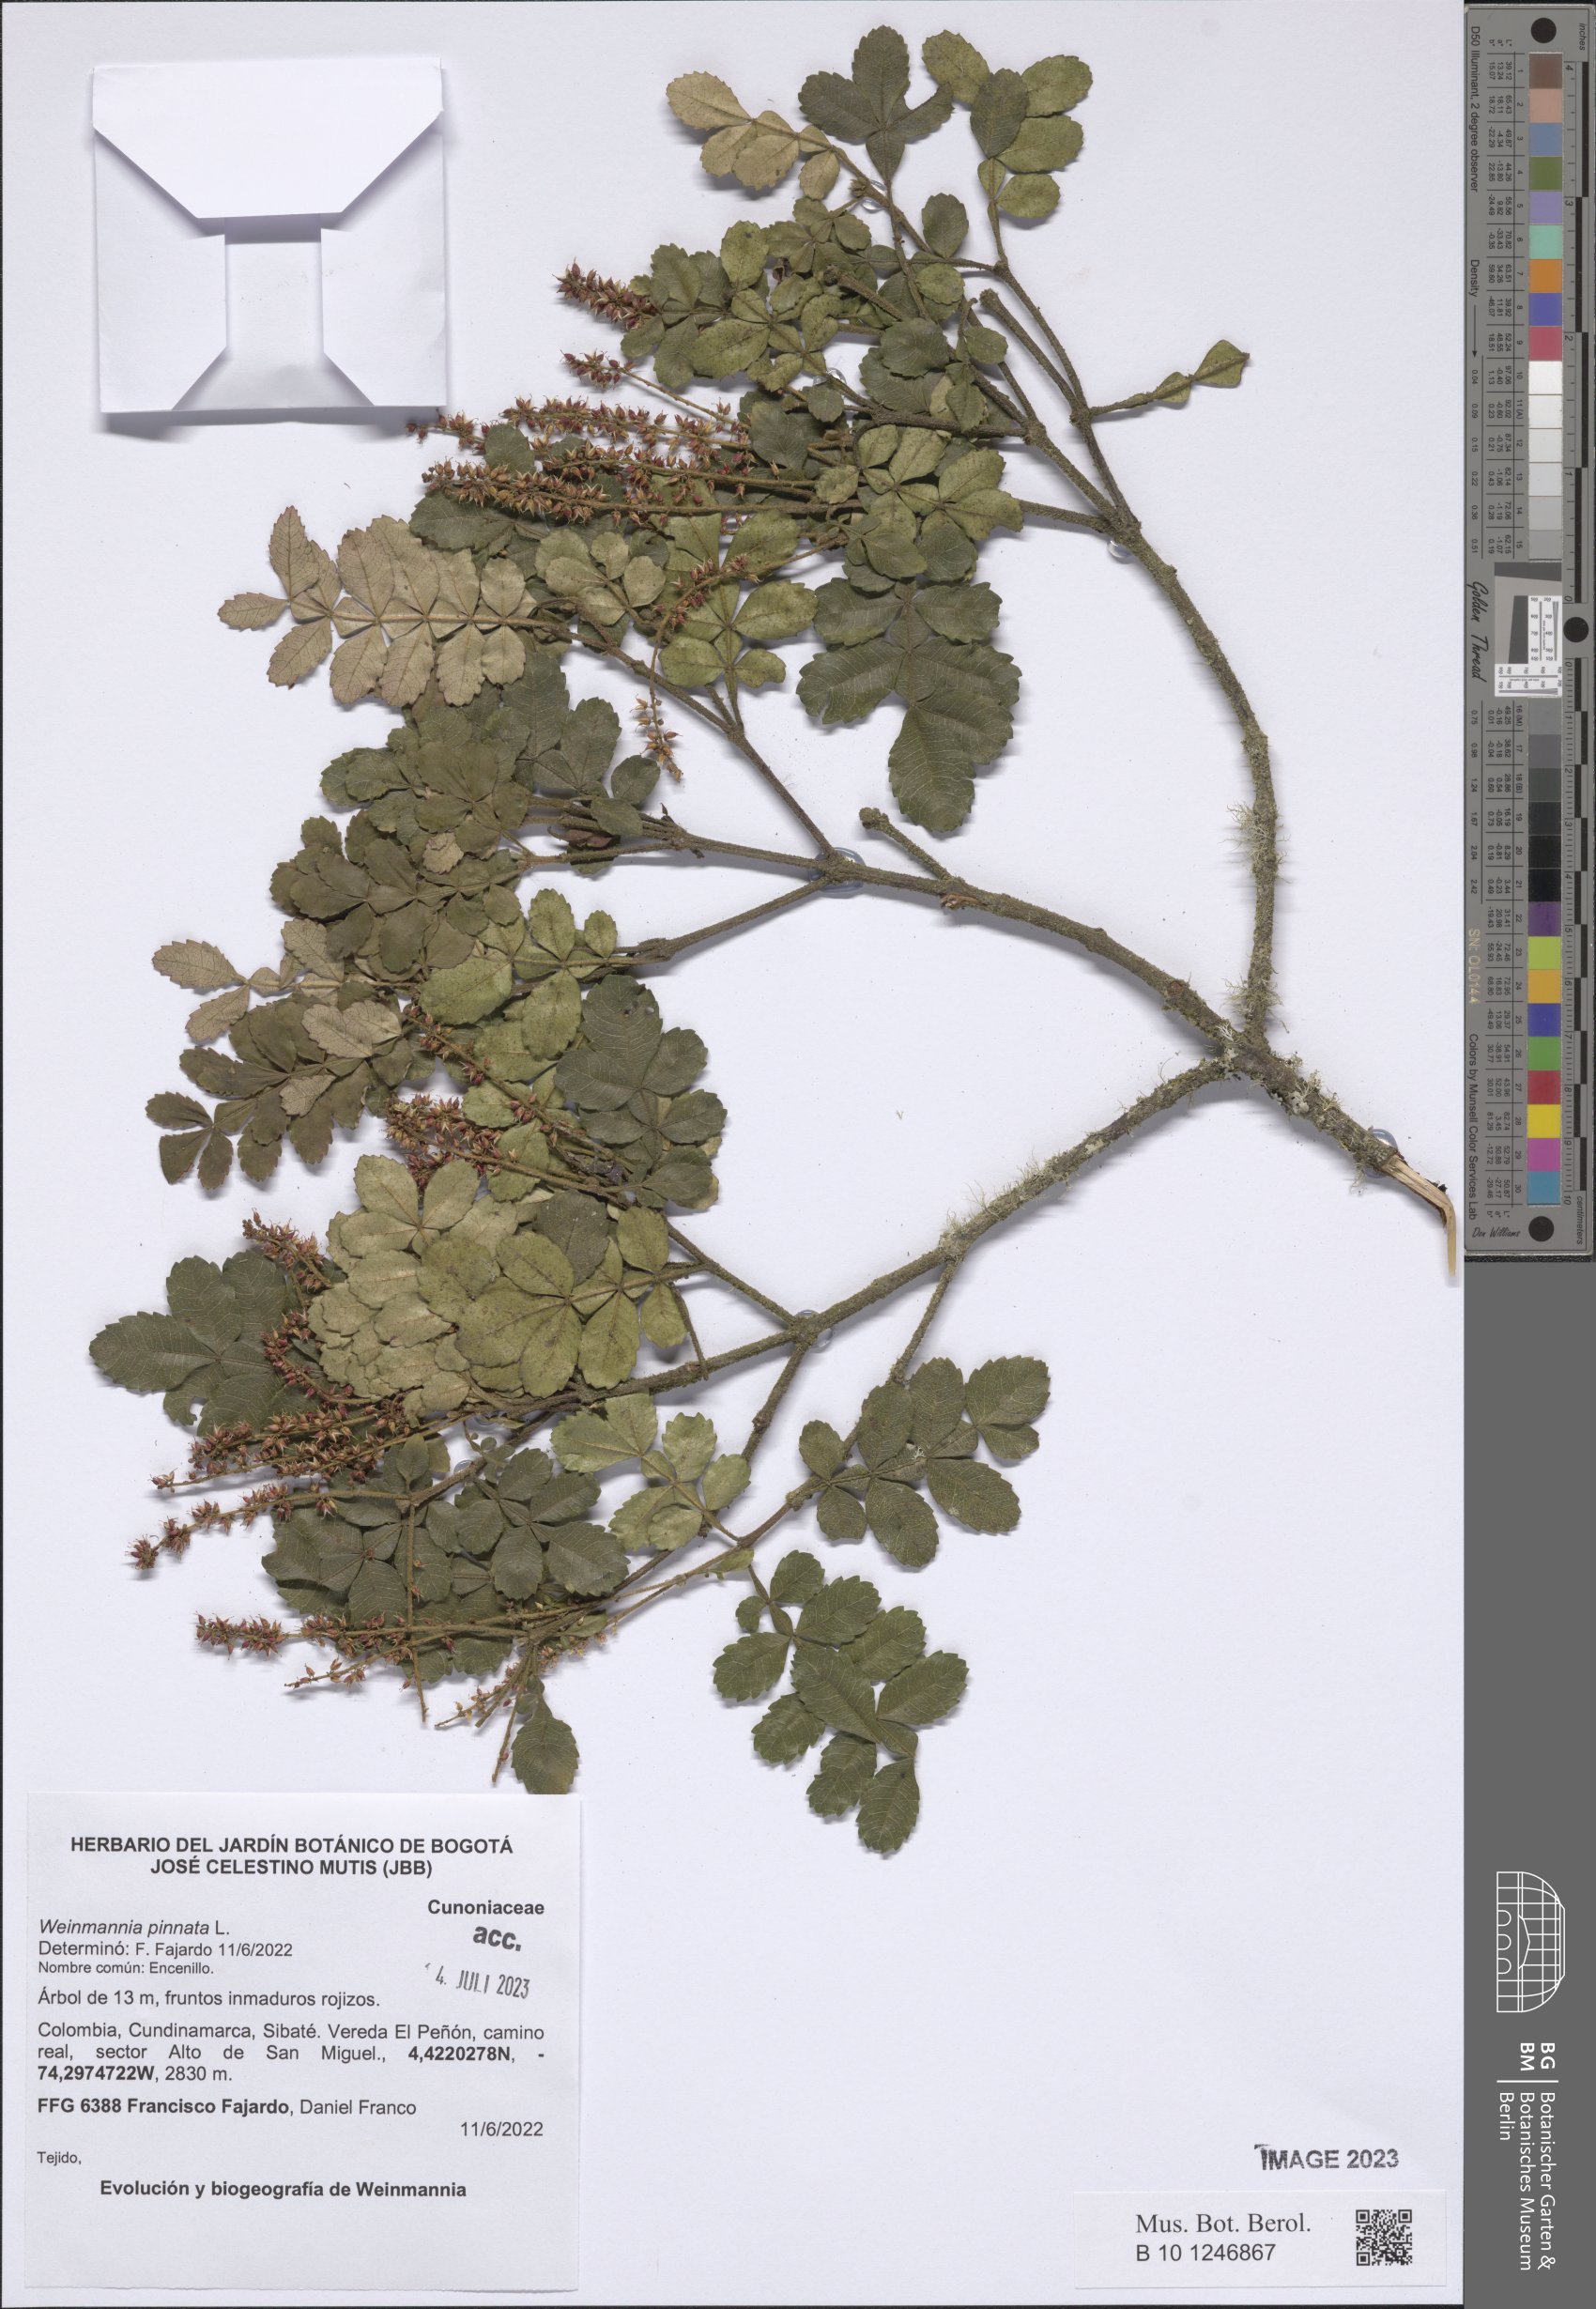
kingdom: Plantae
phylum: Tracheophyta
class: Magnoliopsida
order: Oxalidales
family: Cunoniaceae
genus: Weinmannia
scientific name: Weinmannia pinnata
